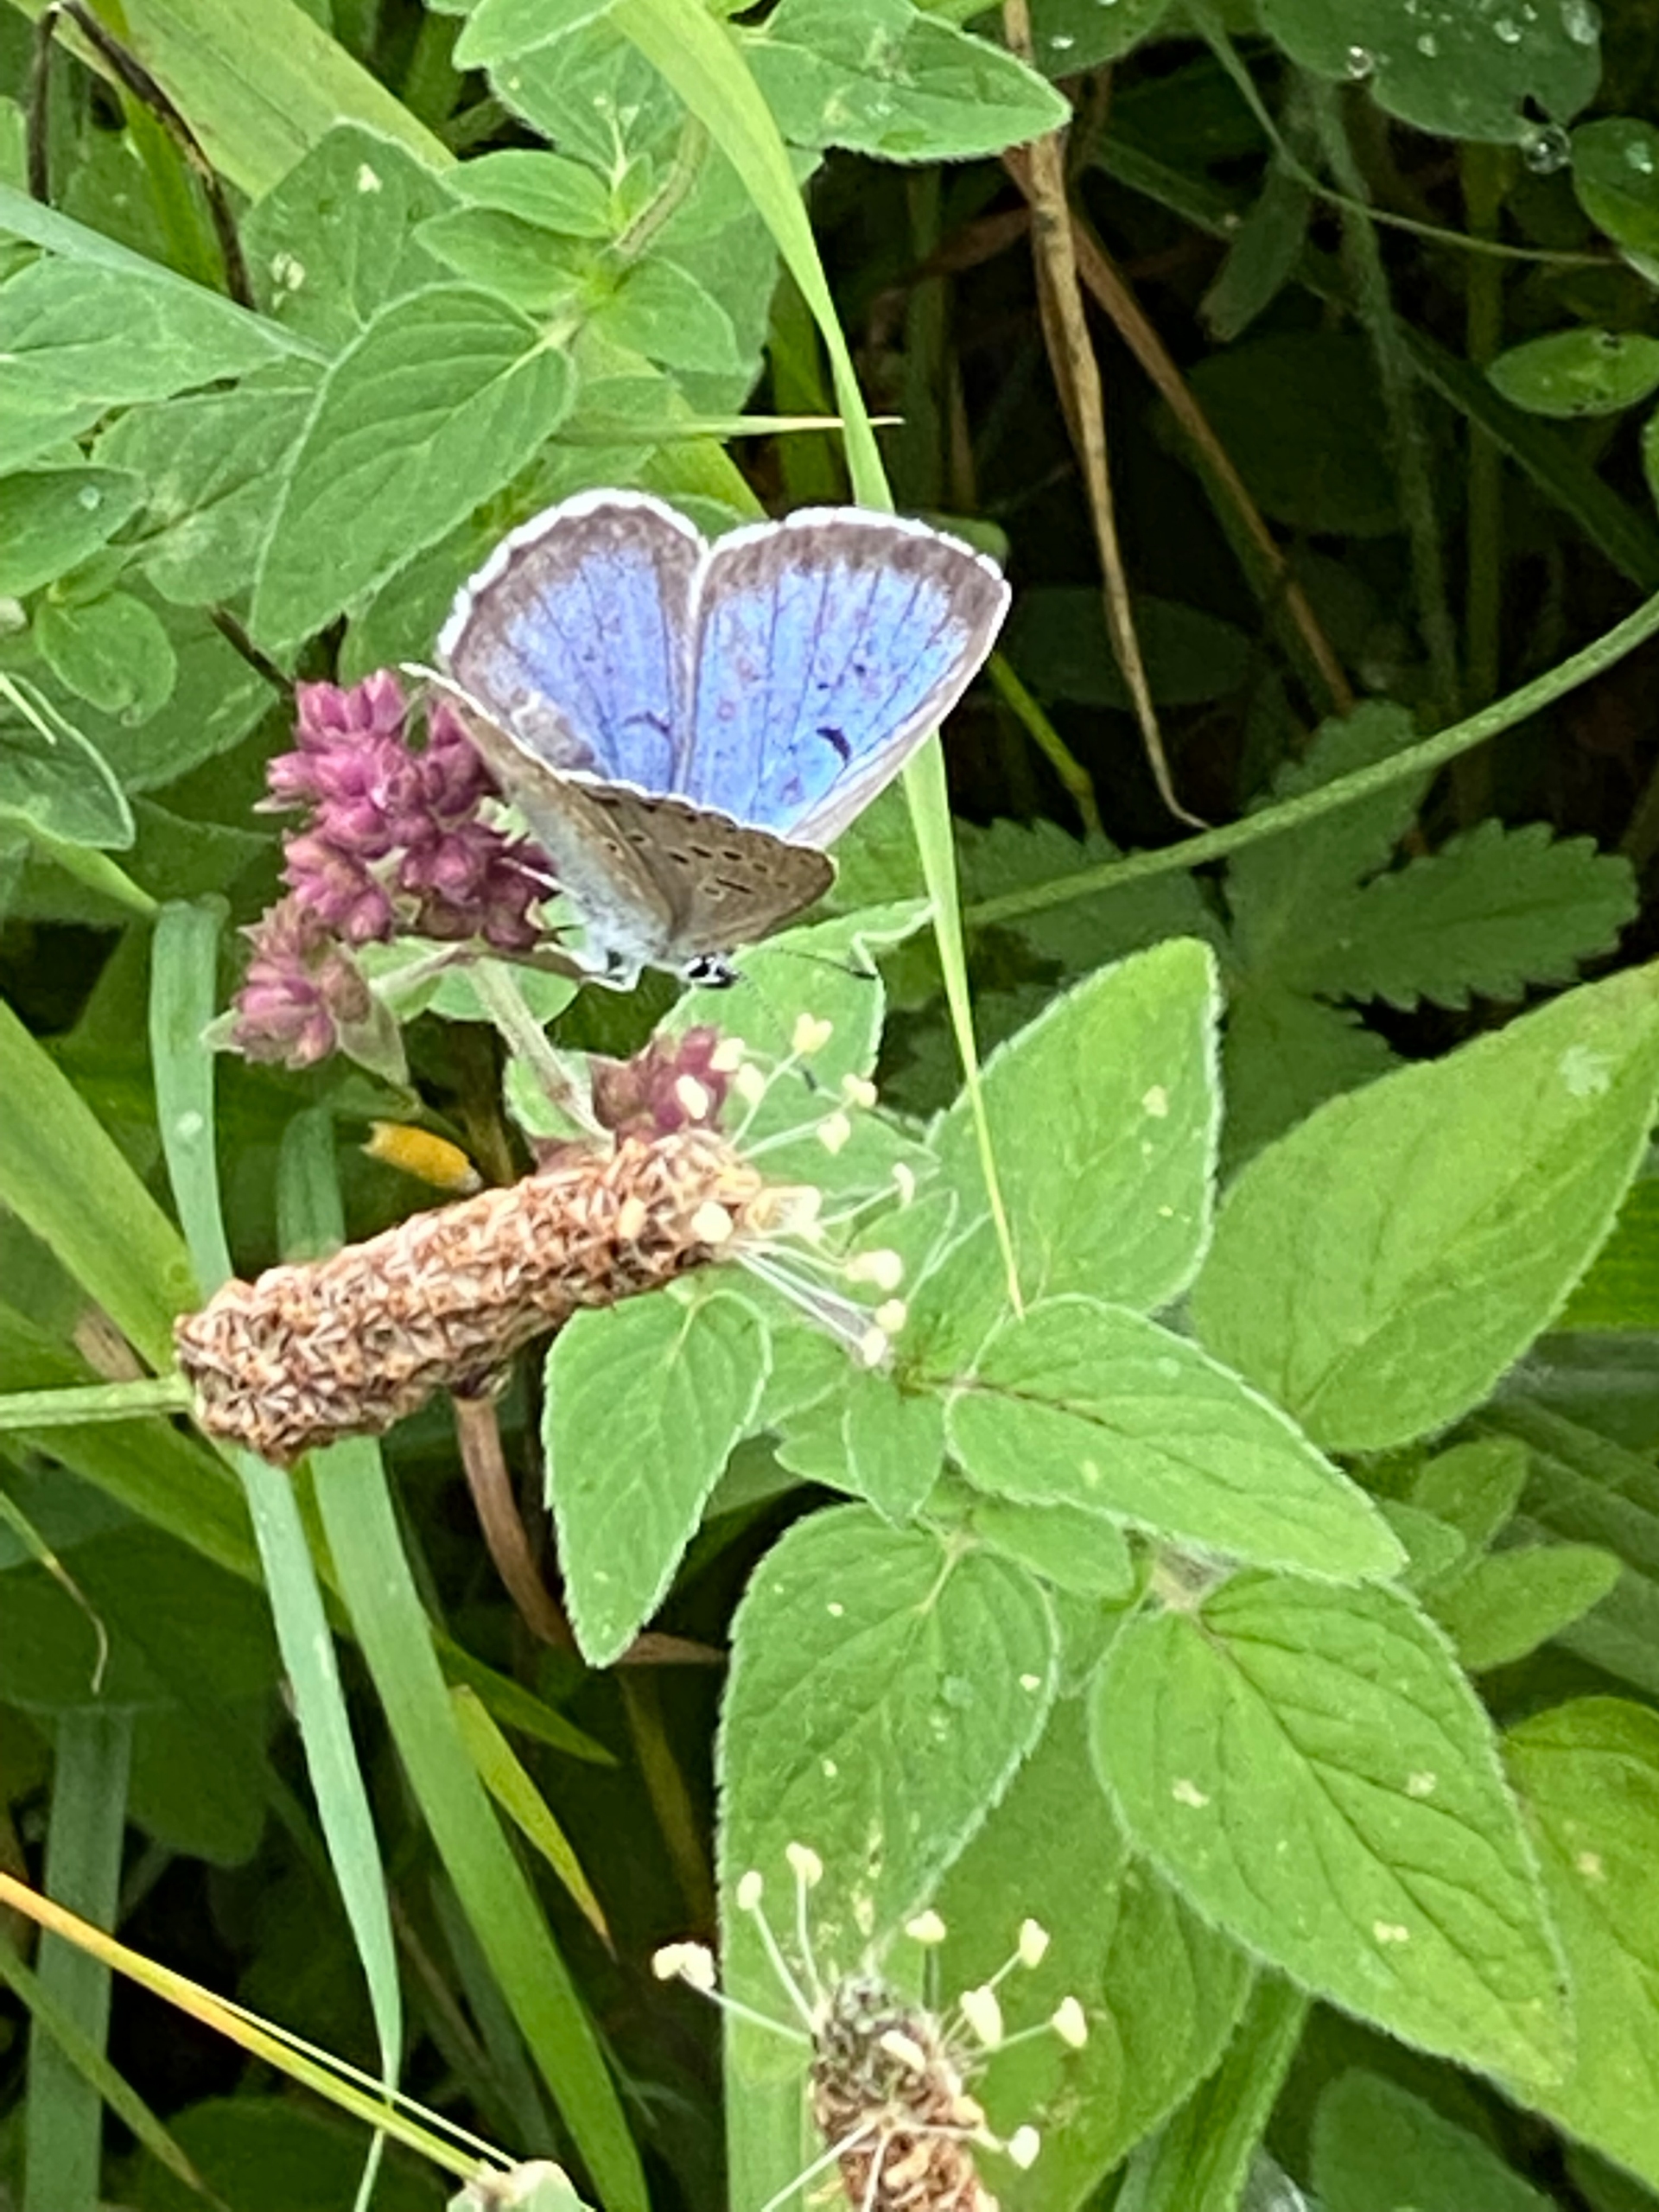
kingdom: Animalia
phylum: Arthropoda
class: Insecta
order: Lepidoptera
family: Lycaenidae
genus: Maculinea
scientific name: Maculinea arion
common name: Sortplettet blåfugl
